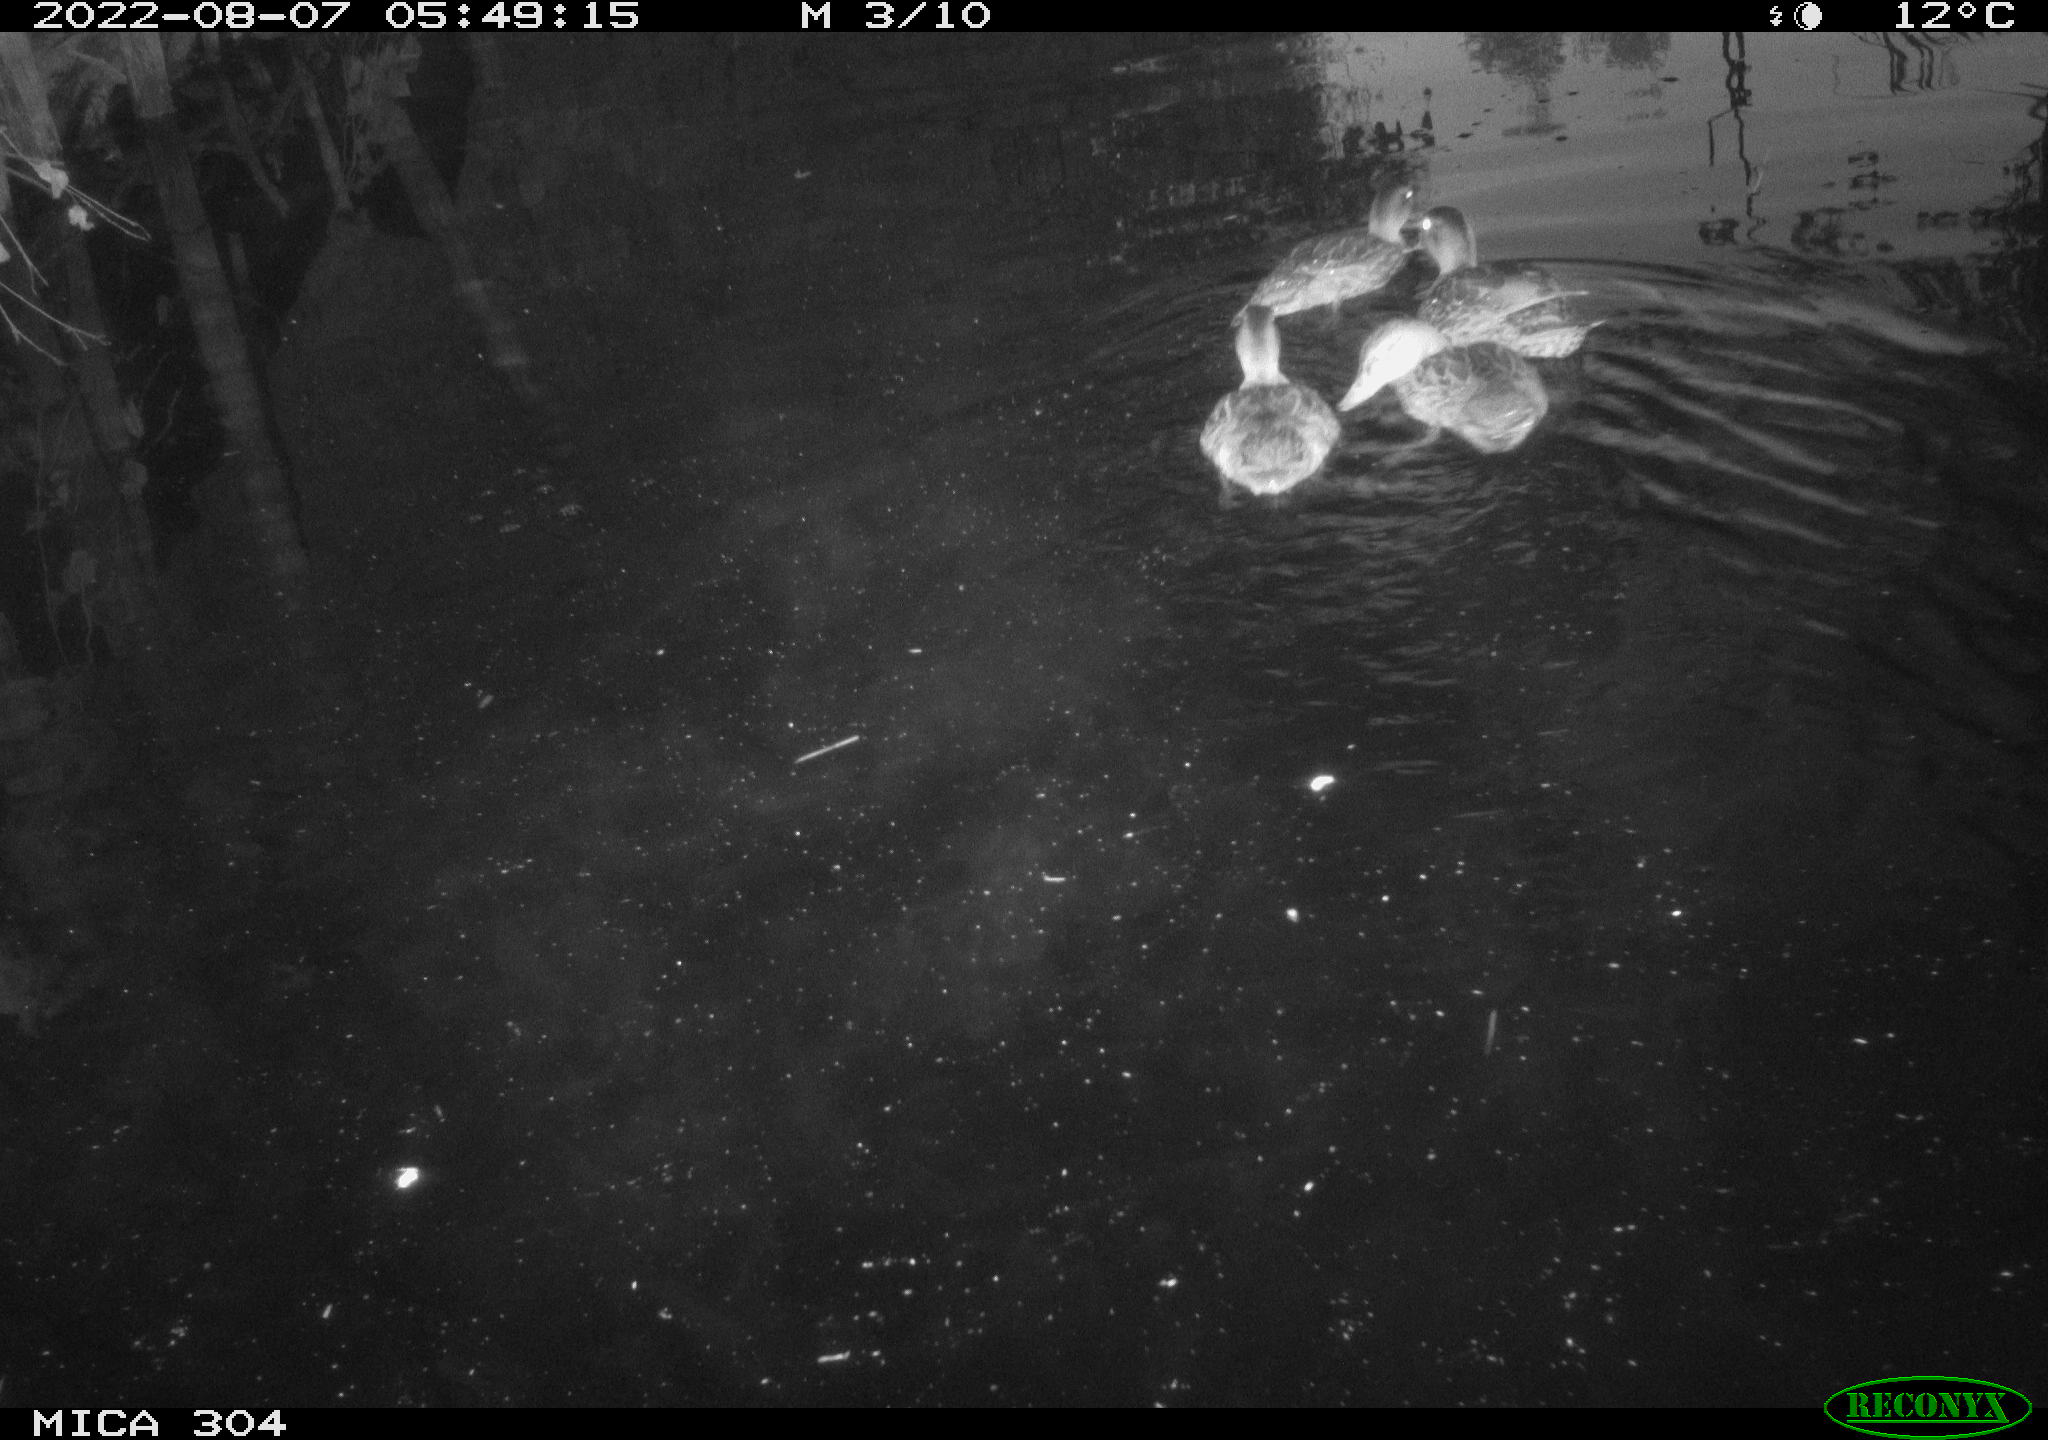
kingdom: Animalia
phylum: Chordata
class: Aves
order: Anseriformes
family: Anatidae
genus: Anas
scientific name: Anas platyrhynchos
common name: Mallard
